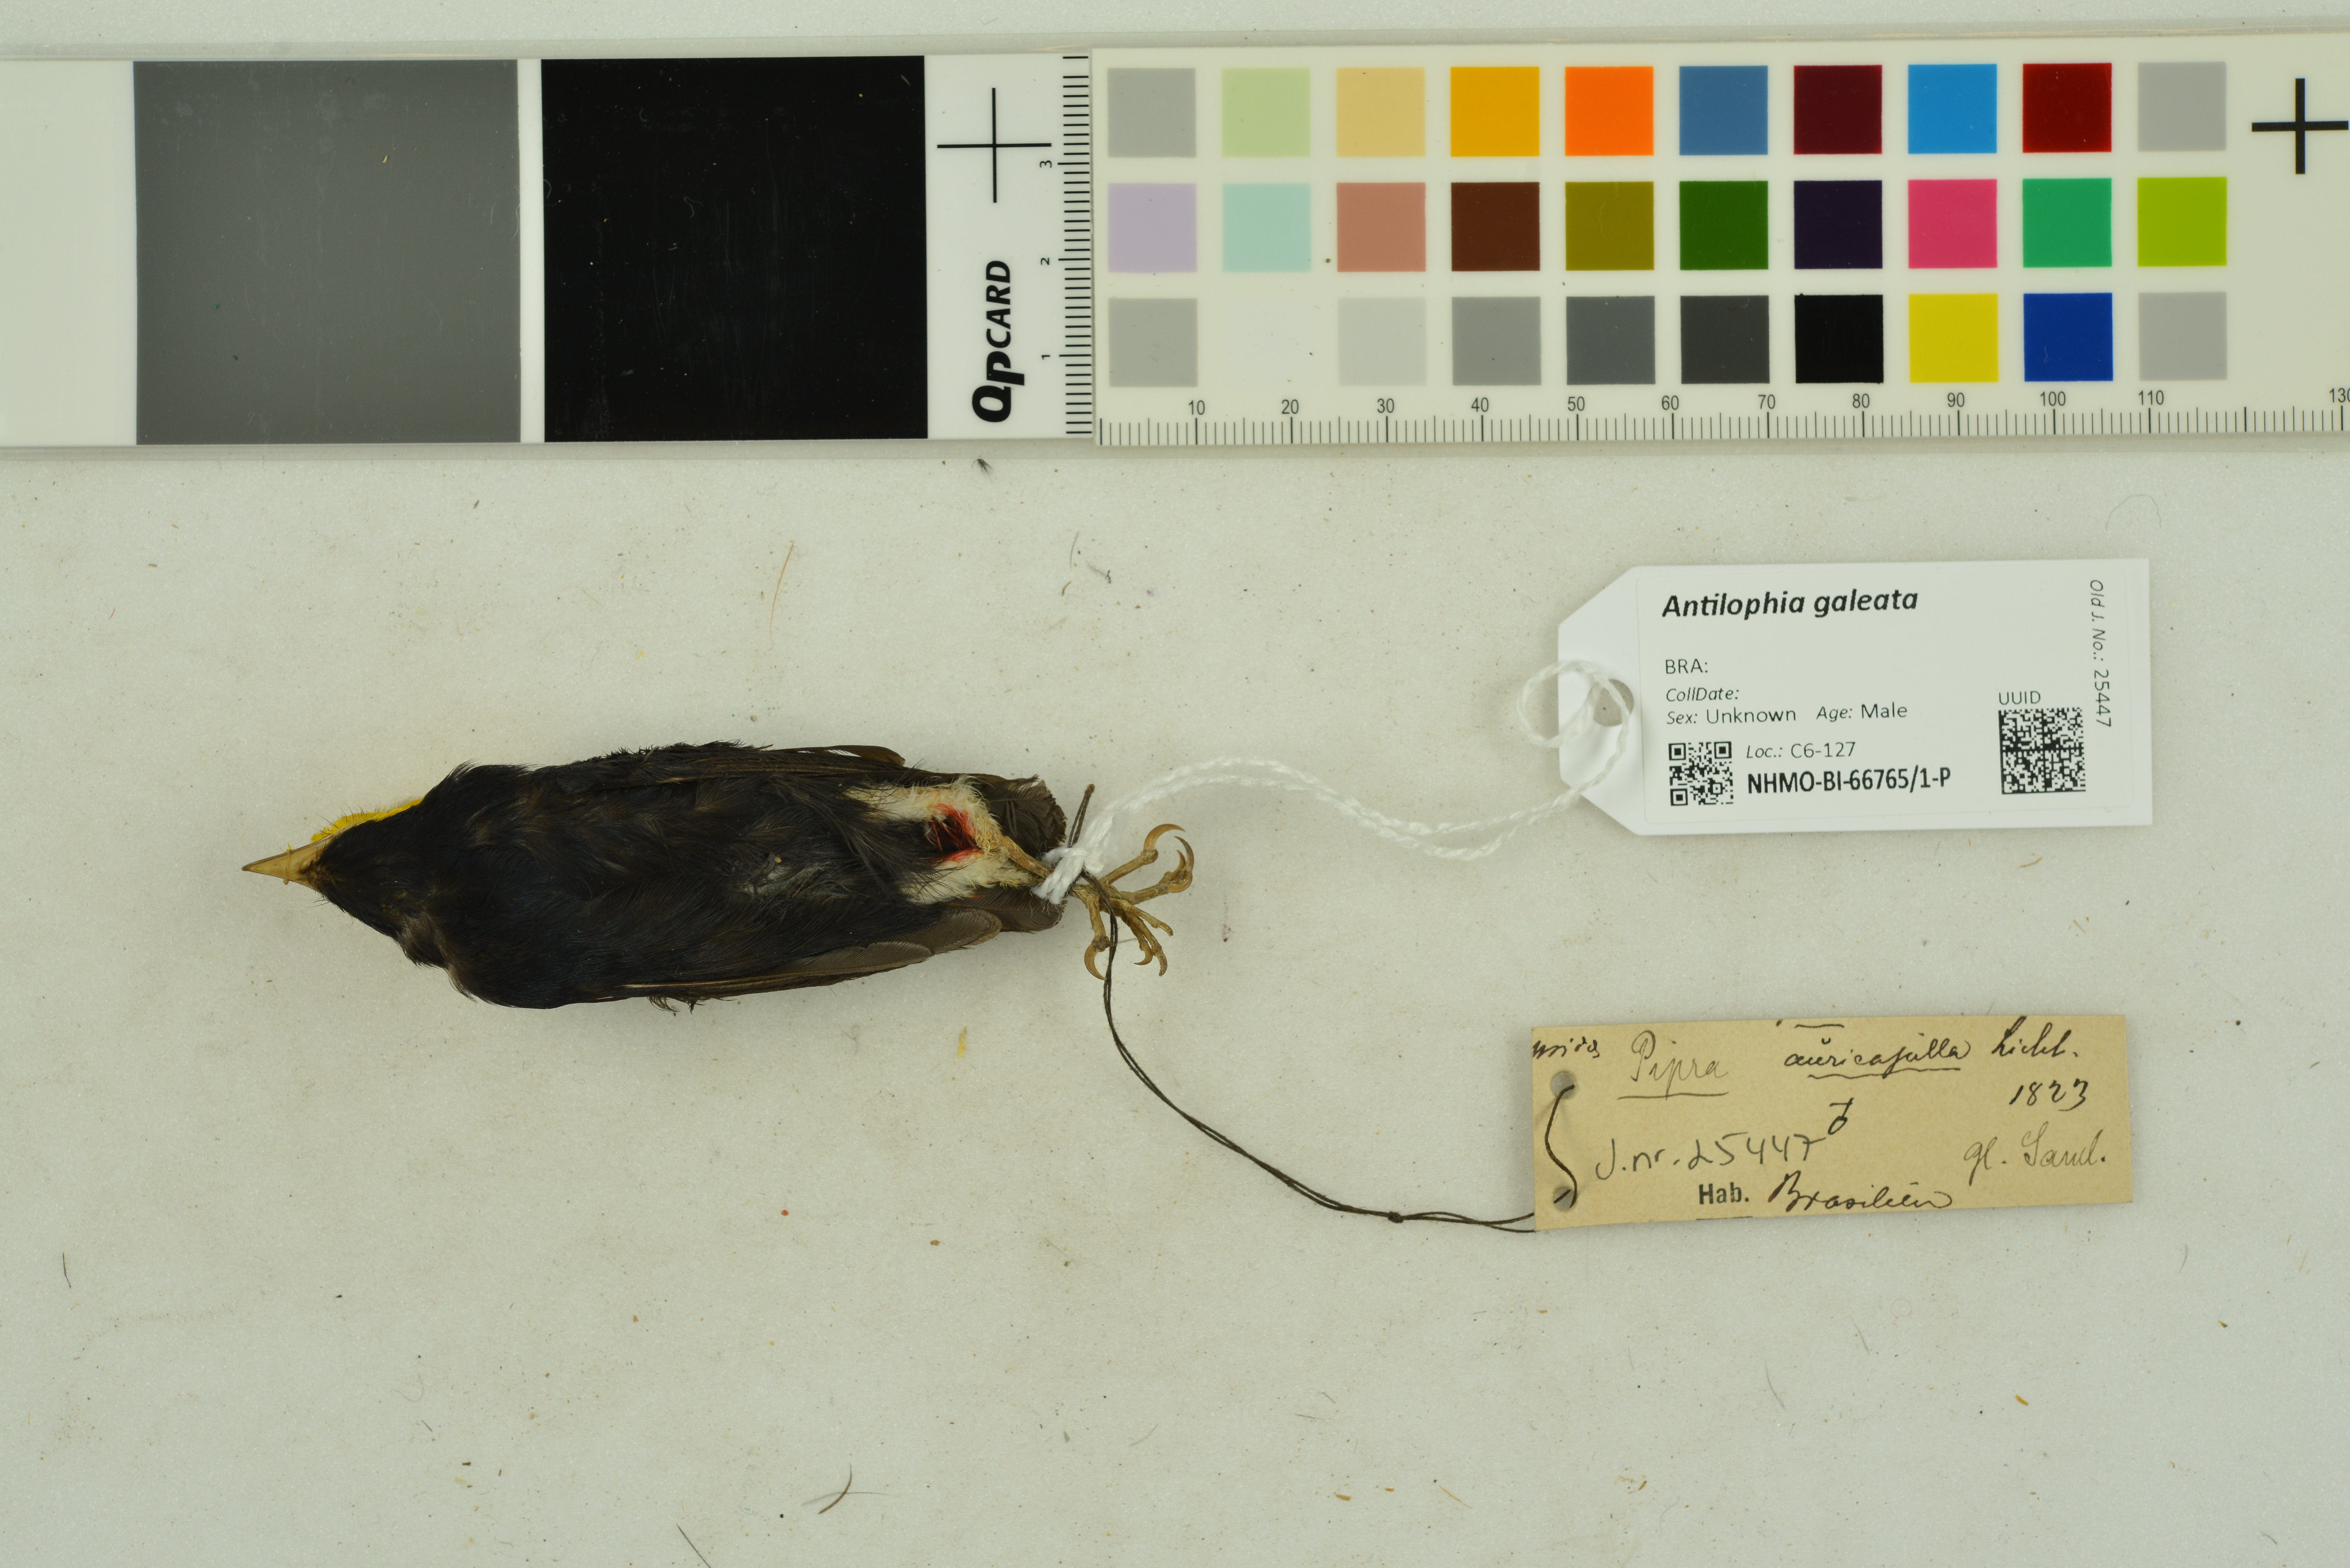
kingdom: Animalia
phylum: Chordata
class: Aves
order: Passeriformes
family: Pipridae
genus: Antilophia
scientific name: Antilophia galeata
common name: Helmeted manakin
